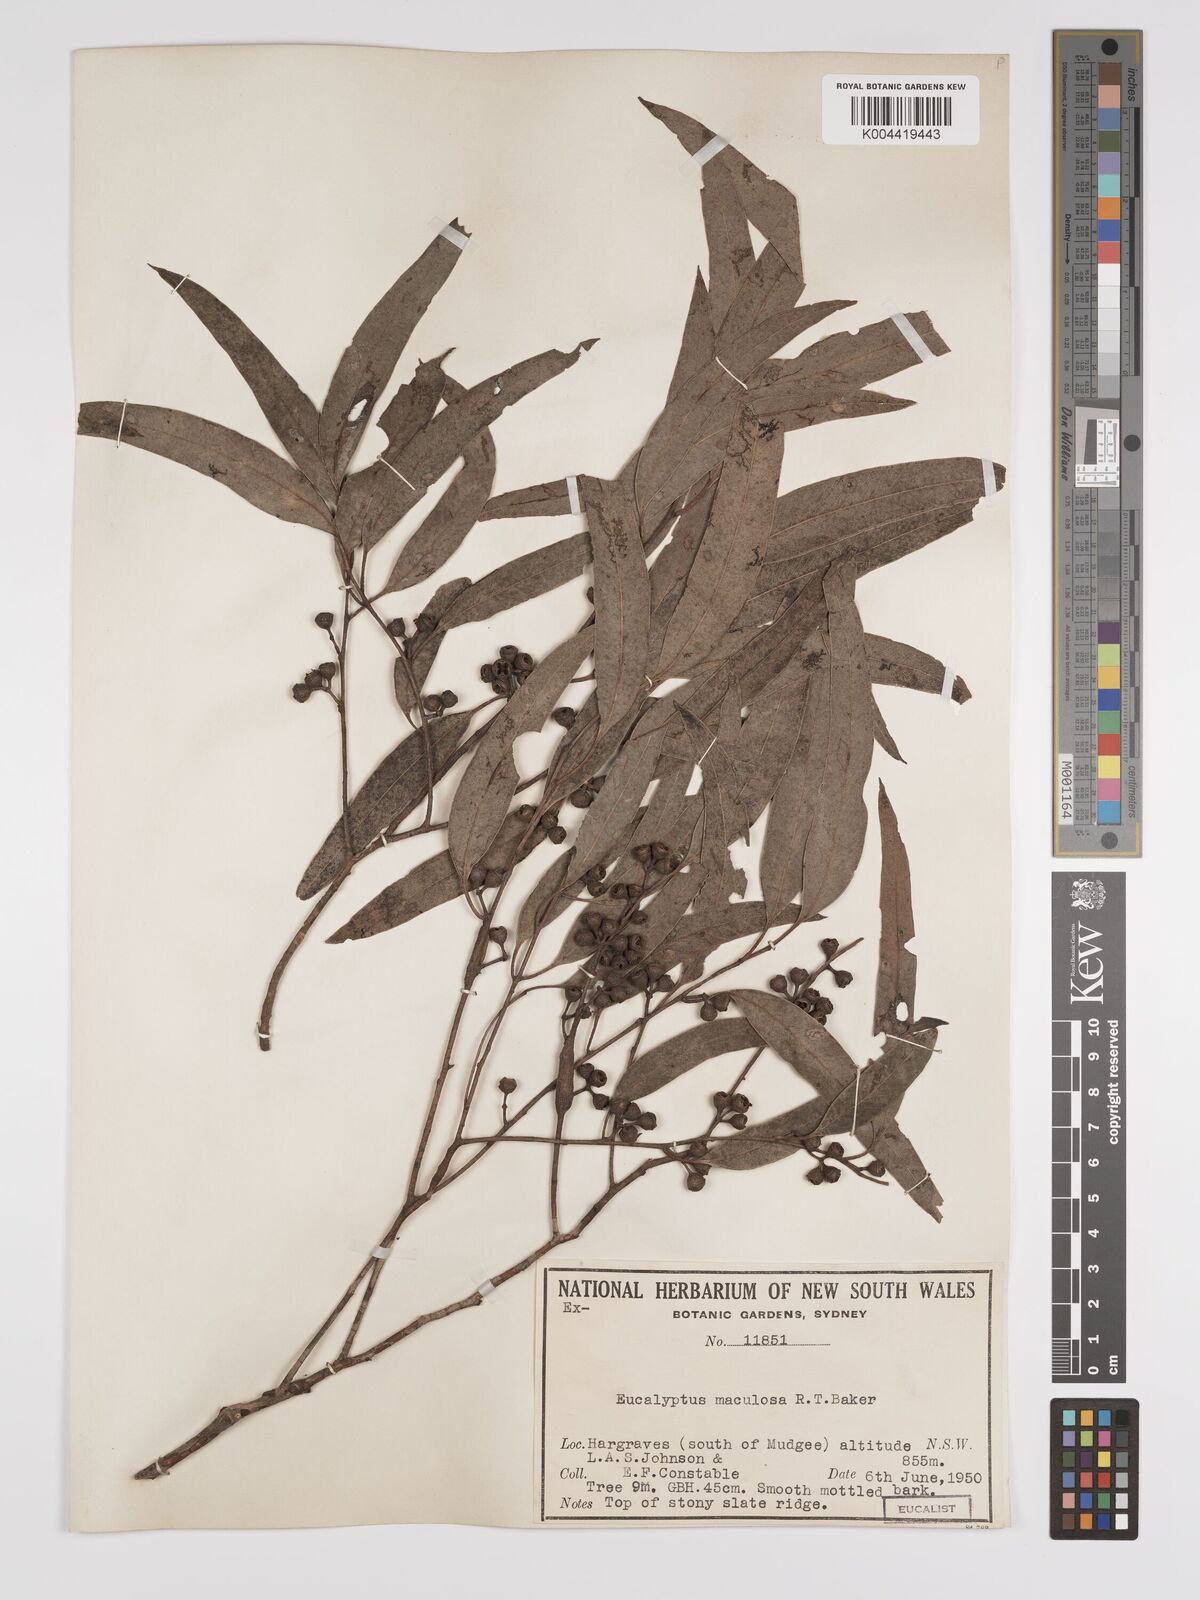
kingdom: Plantae
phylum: Tracheophyta
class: Magnoliopsida
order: Myrtales
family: Myrtaceae
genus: Eucalyptus
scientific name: Eucalyptus mannifera
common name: Manna gum
